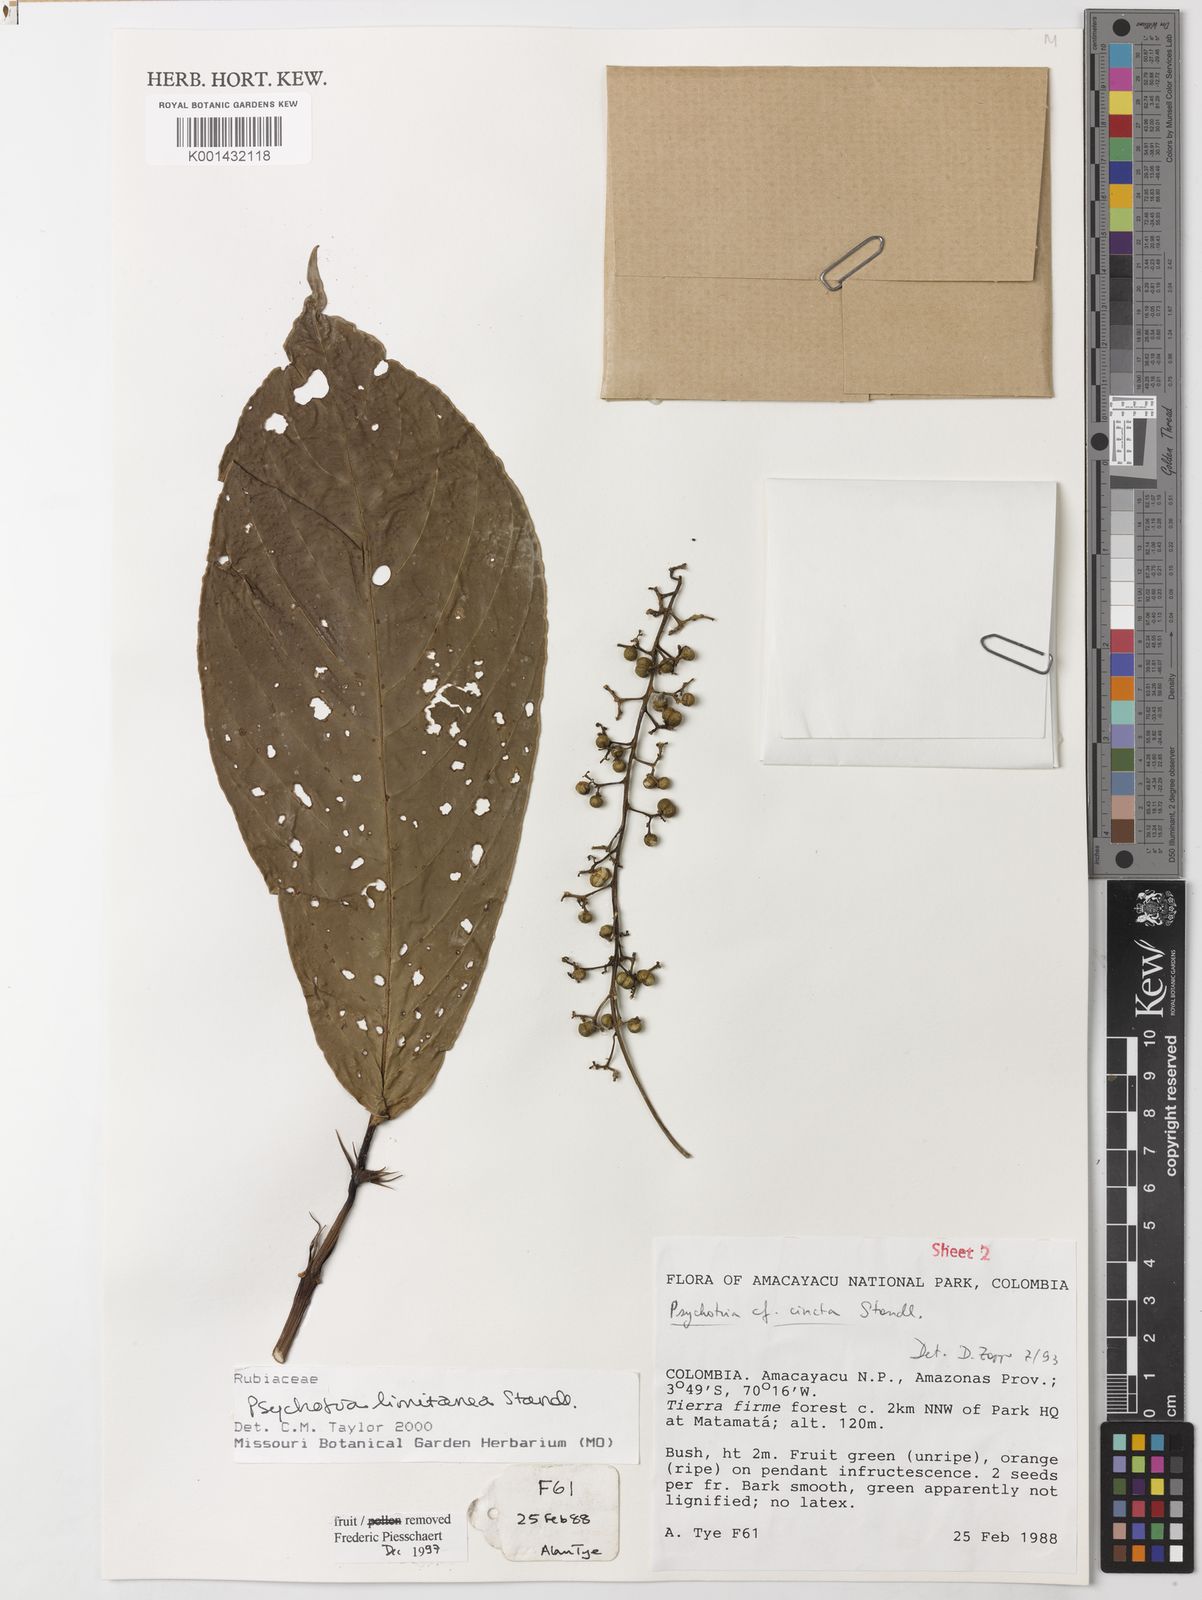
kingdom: Plantae
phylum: Tracheophyta
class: Magnoliopsida
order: Gentianales
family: Rubiaceae
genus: Psychotria
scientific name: Psychotria limitanea
